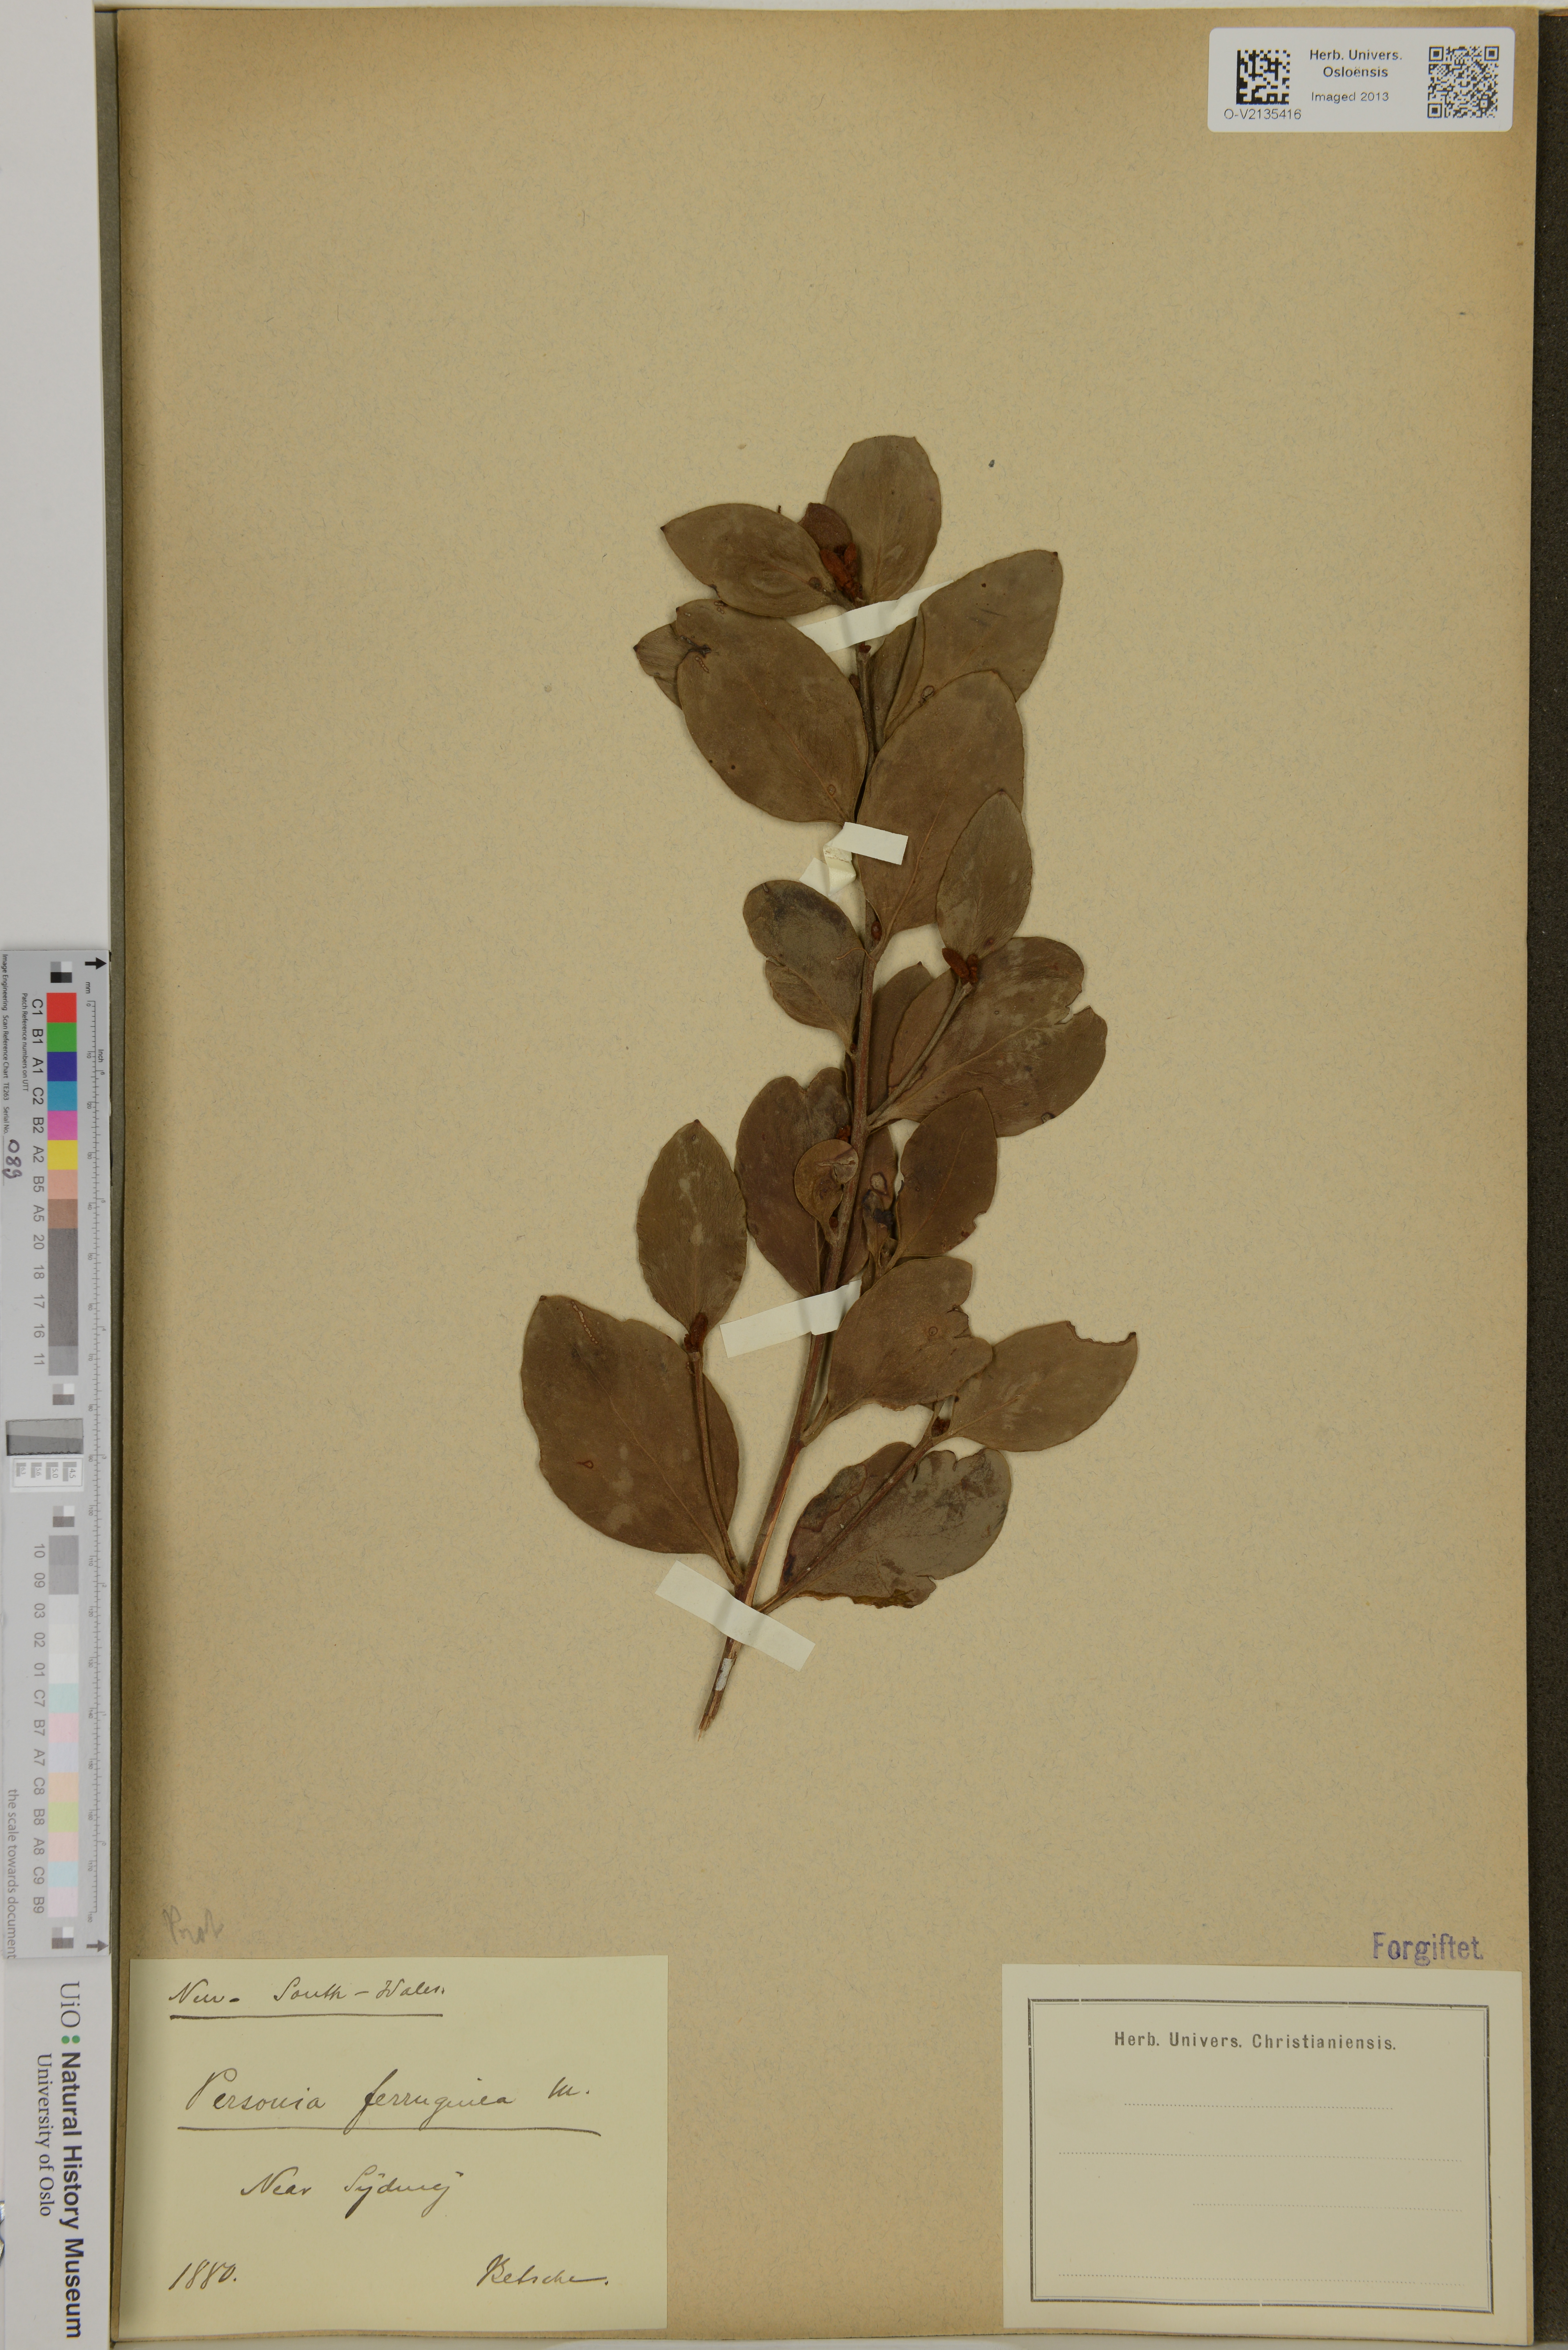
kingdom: Plantae
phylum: Tracheophyta
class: Magnoliopsida
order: Proteales
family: Proteaceae
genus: Persoonia
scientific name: Persoonia ferruginea
